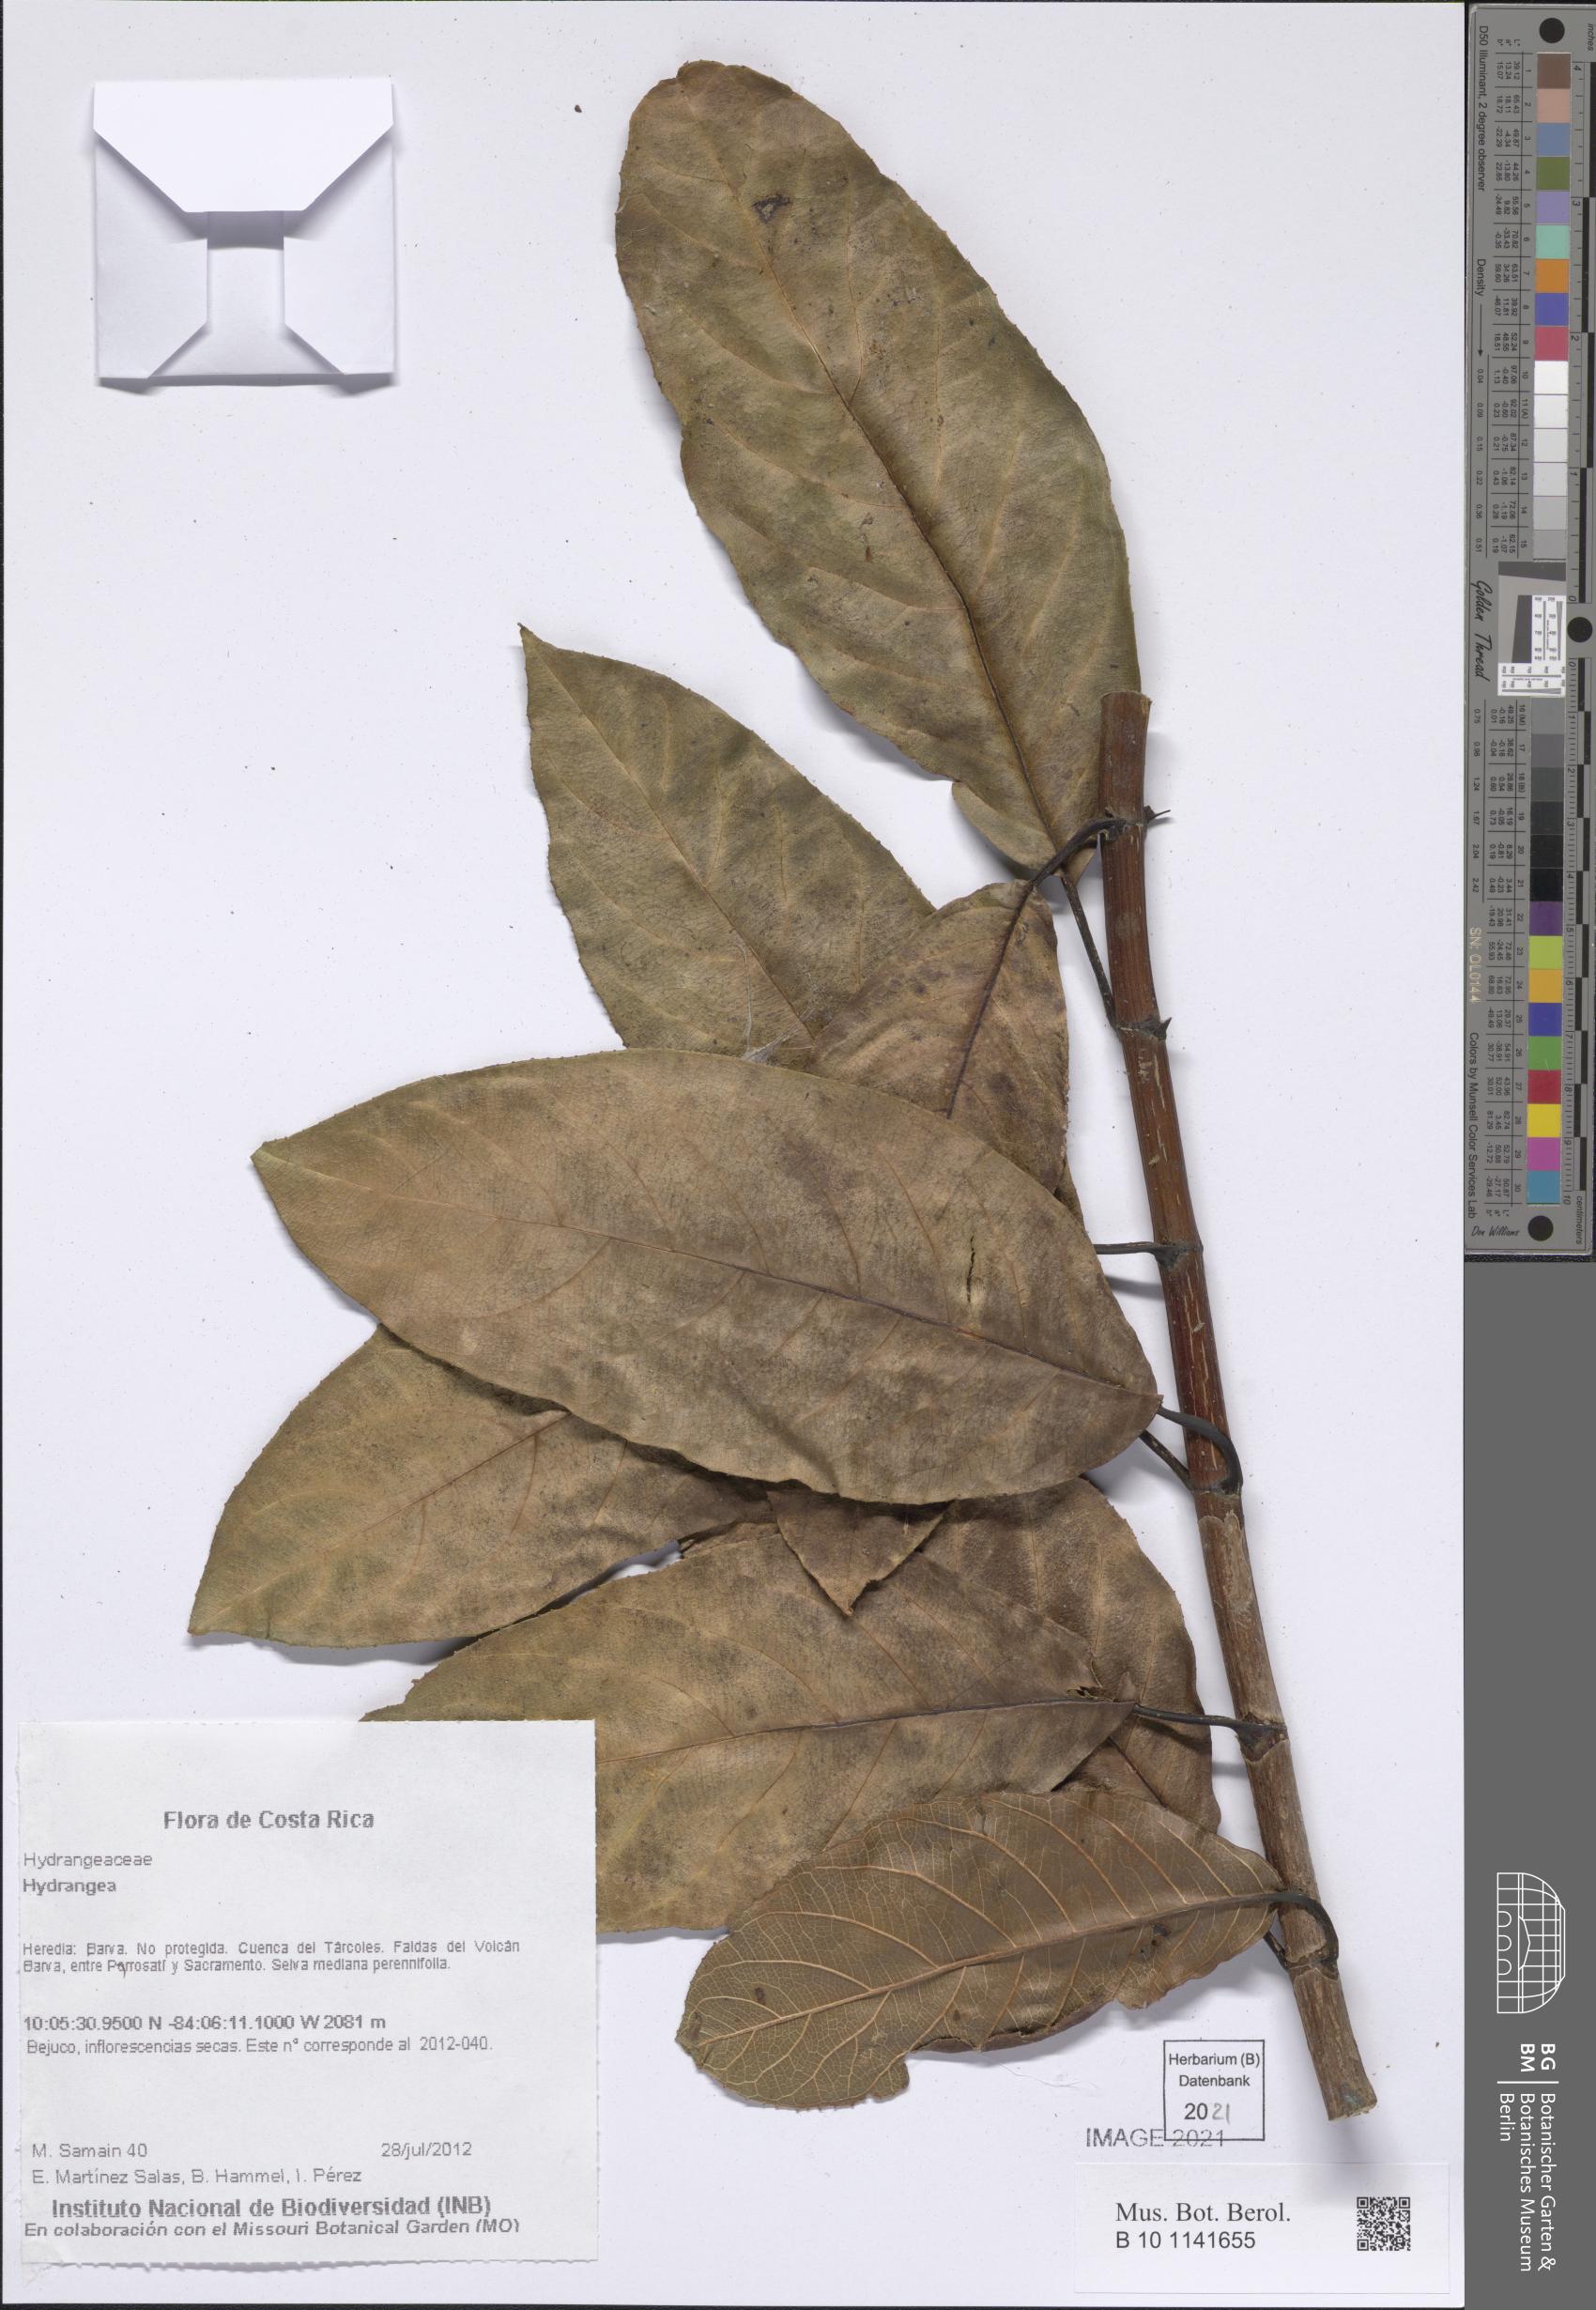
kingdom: Plantae
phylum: Tracheophyta
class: Magnoliopsida
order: Cornales
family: Hydrangeaceae
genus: Hydrangea
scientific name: Hydrangea
